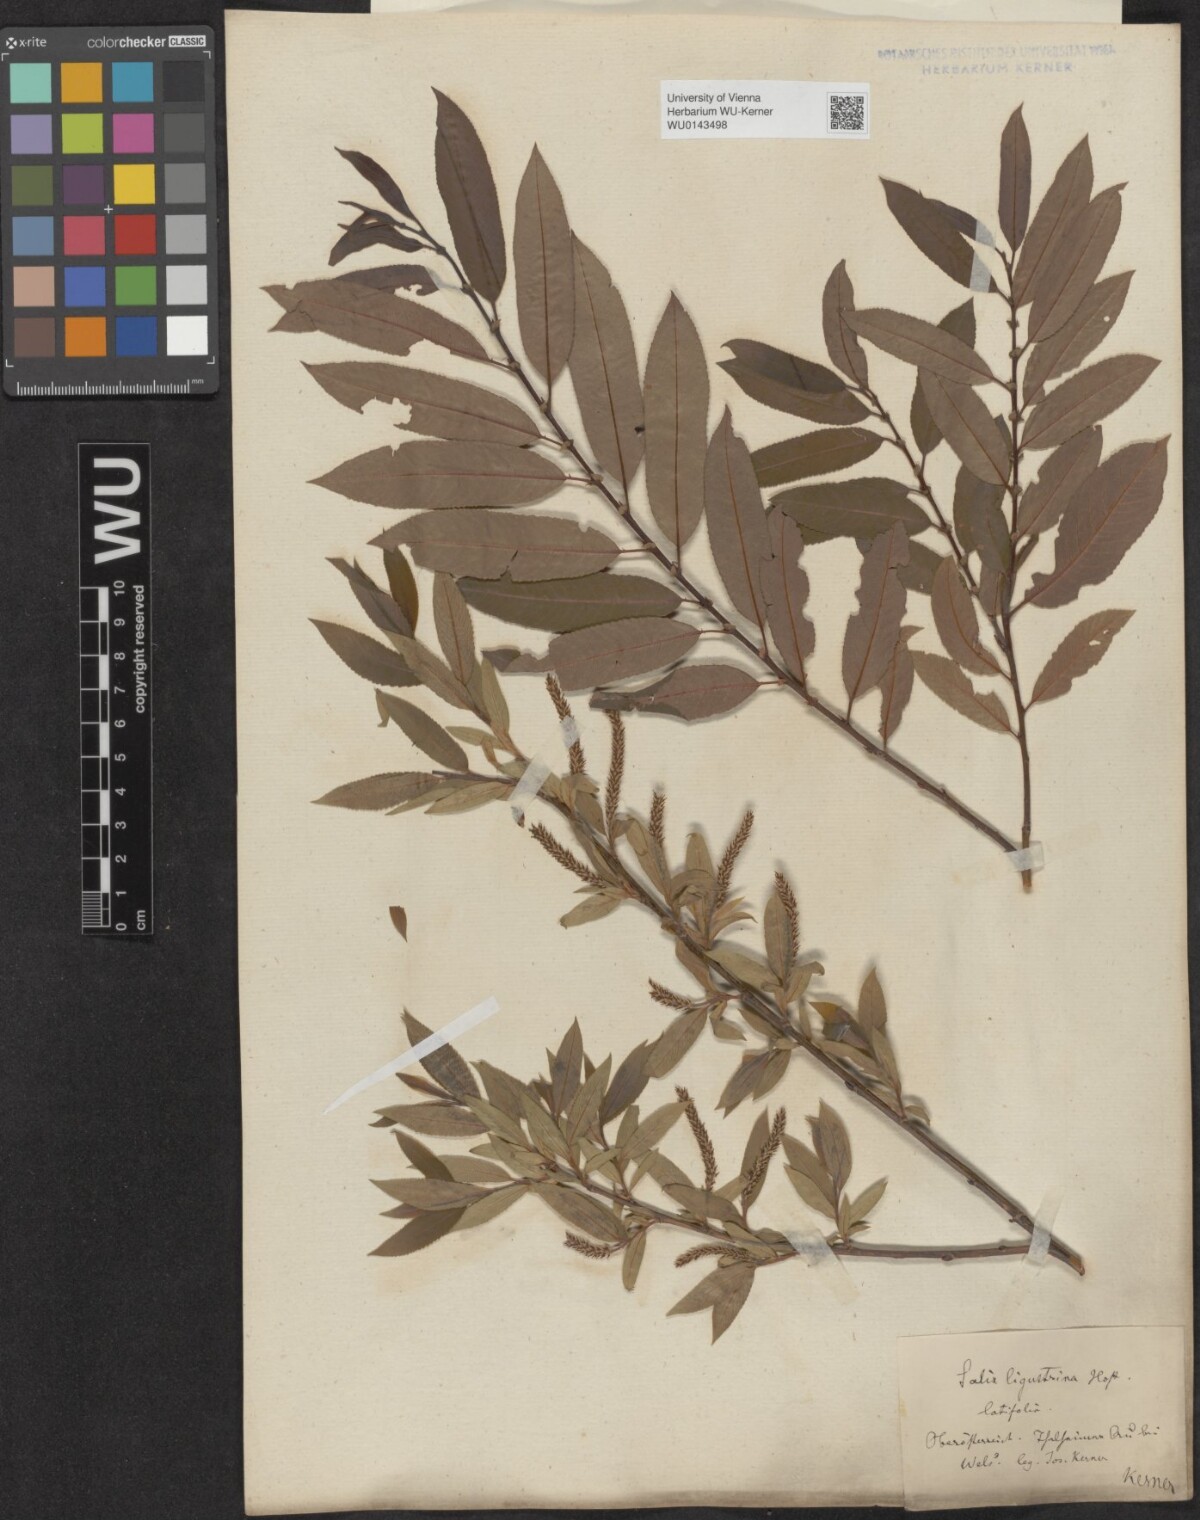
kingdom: Plantae
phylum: Tracheophyta
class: Magnoliopsida
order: Malpighiales
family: Salicaceae
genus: Salix
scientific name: Salix triandra
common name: Almond willow
